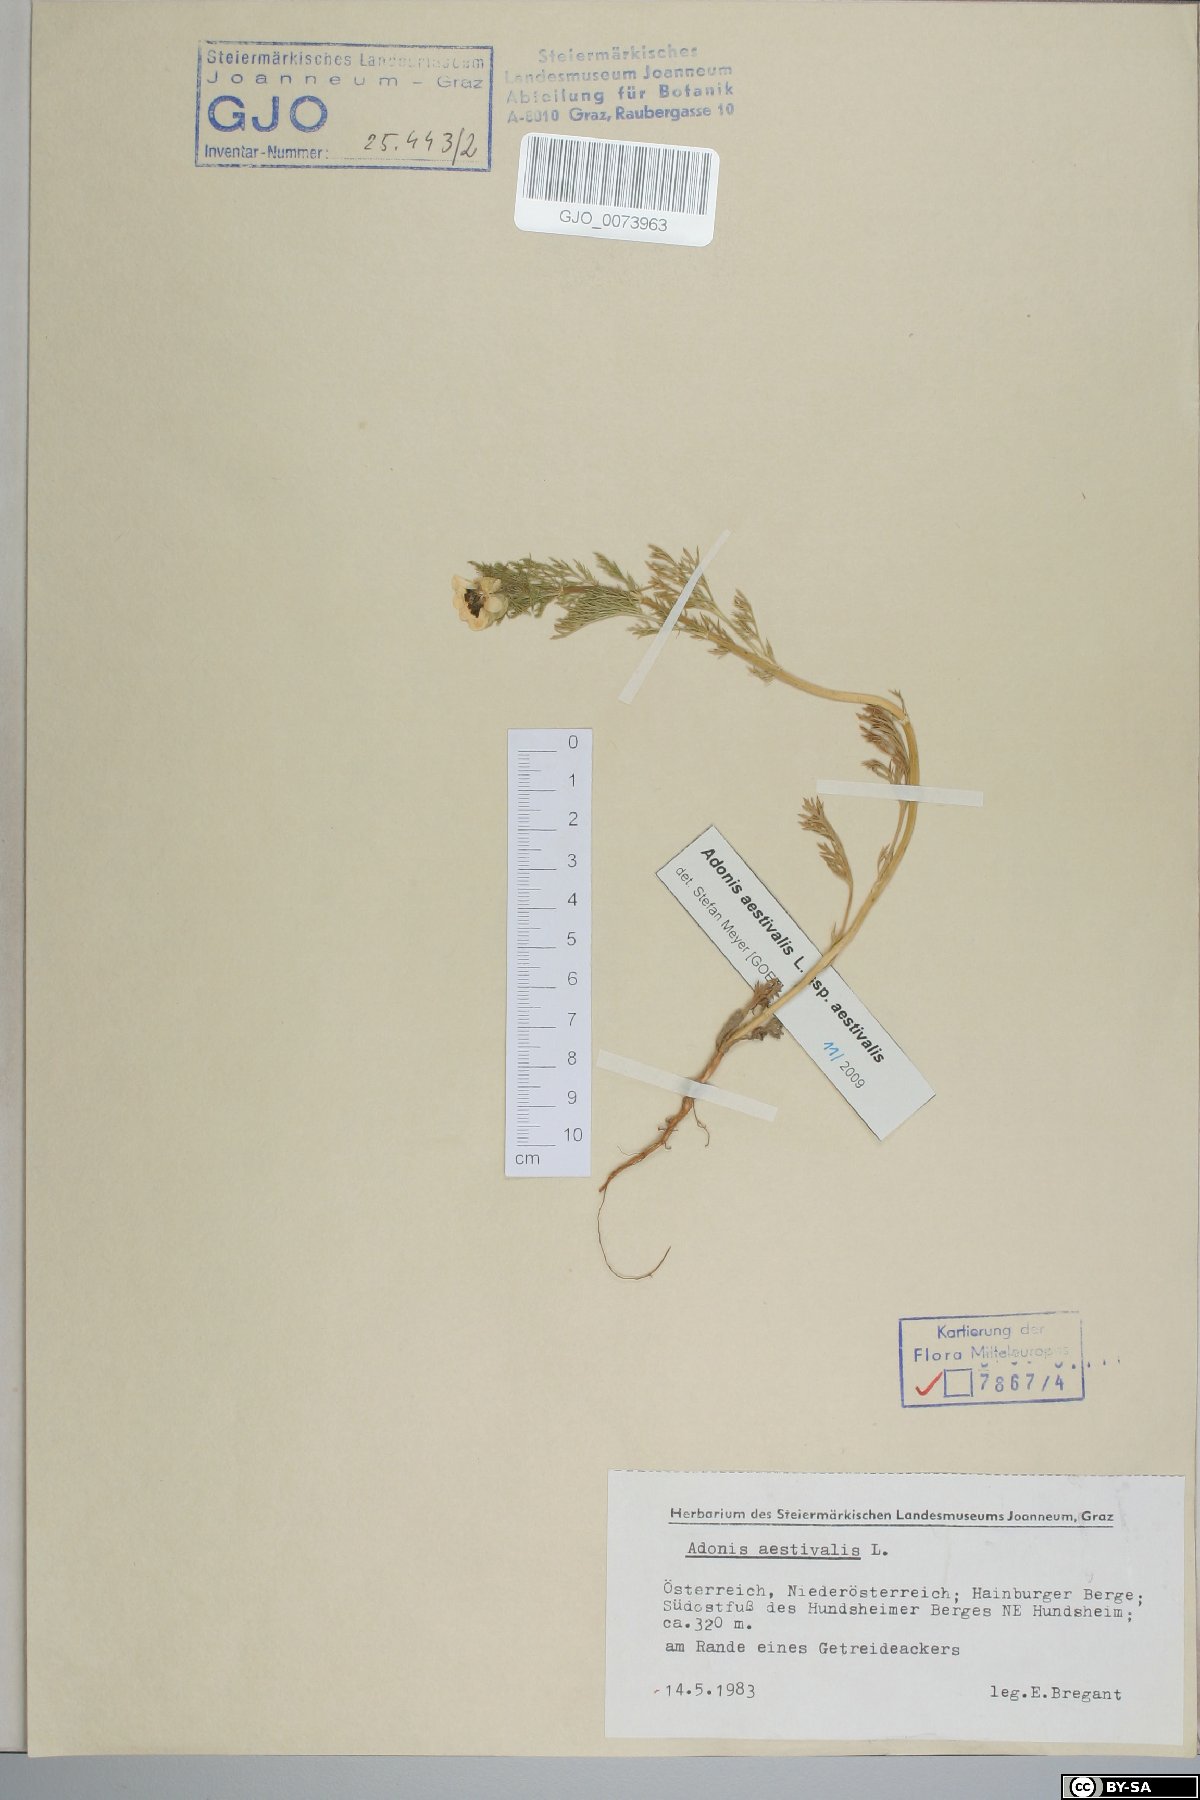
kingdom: Plantae
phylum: Tracheophyta
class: Magnoliopsida
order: Ranunculales
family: Ranunculaceae
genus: Adonis
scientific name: Adonis aestivalis
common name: Summer pheasant's-eye
